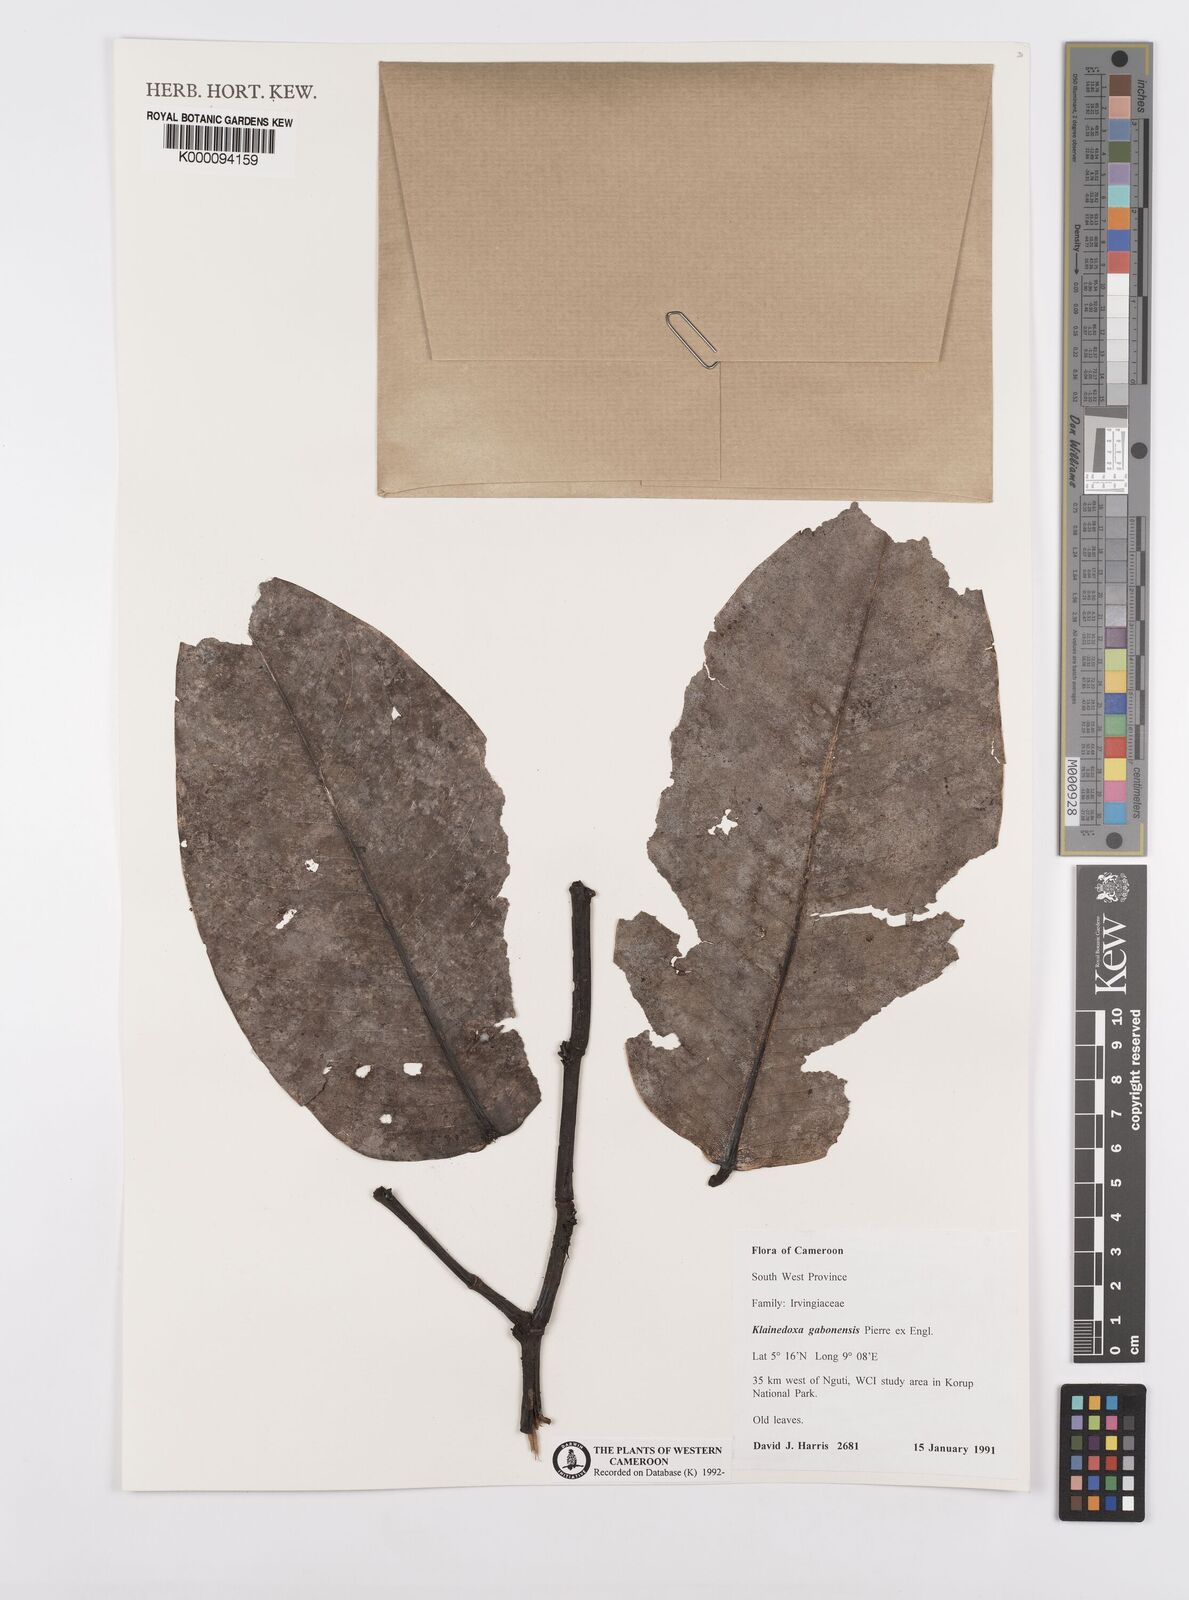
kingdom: Plantae
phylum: Tracheophyta
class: Magnoliopsida
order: Malpighiales
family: Irvingiaceae
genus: Klainedoxa
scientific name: Klainedoxa gabonensis
